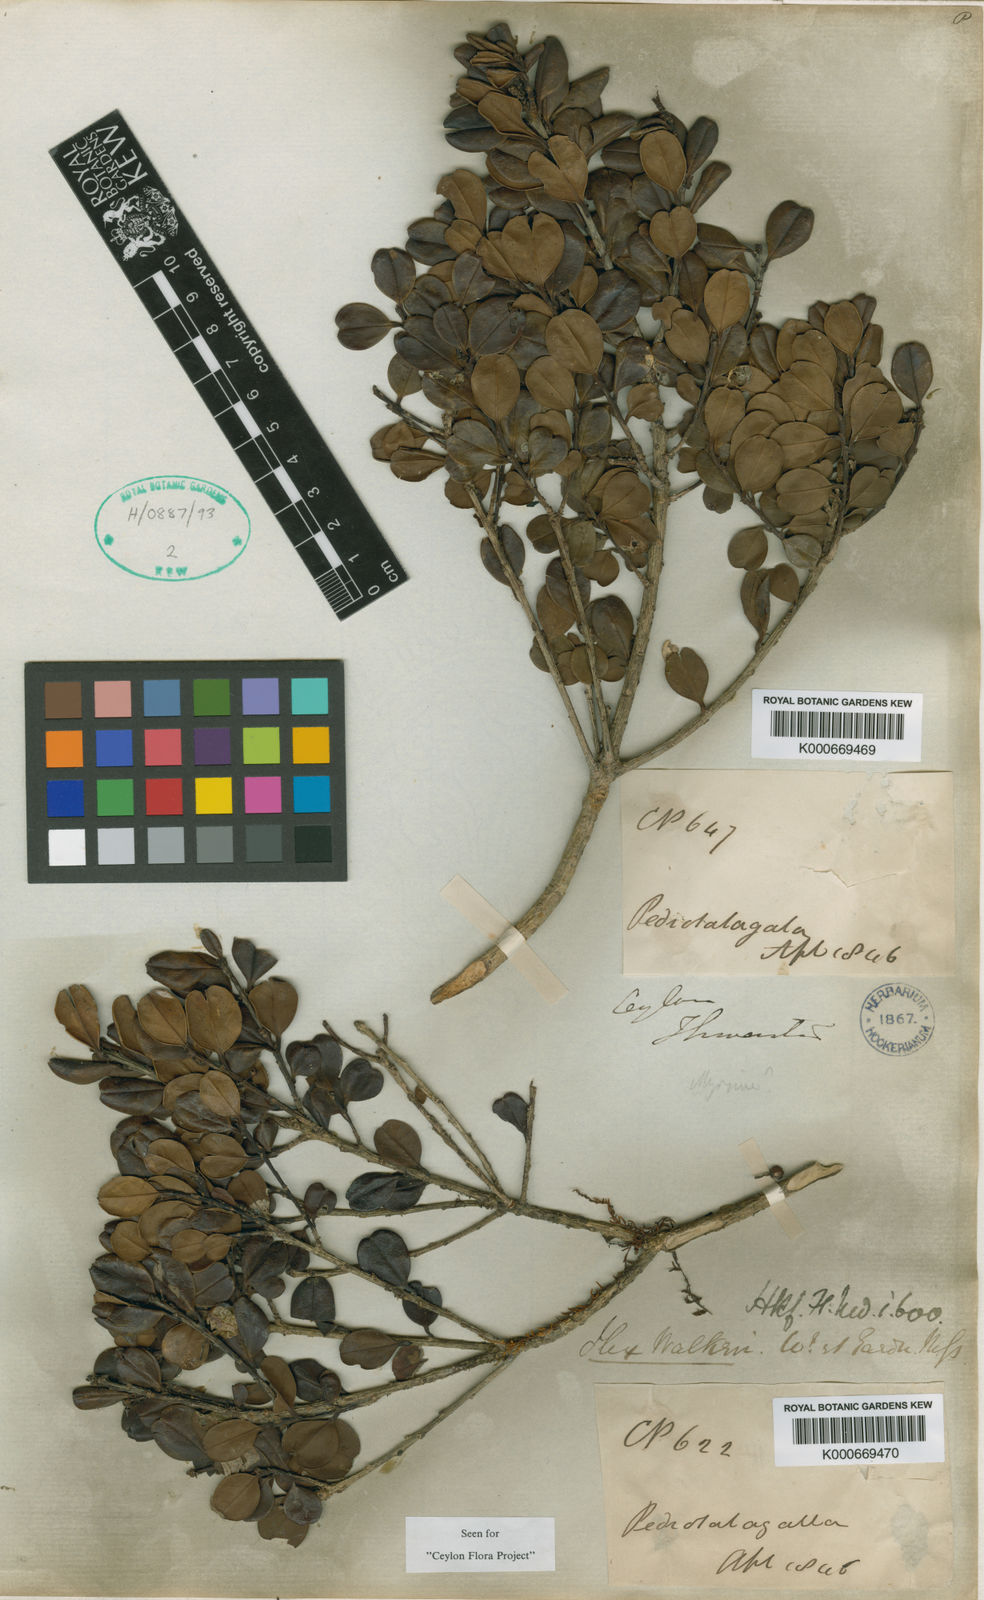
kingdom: Plantae
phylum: Tracheophyta
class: Magnoliopsida
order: Aquifoliales
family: Aquifoliaceae
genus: Ilex
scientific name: Ilex walkeri
